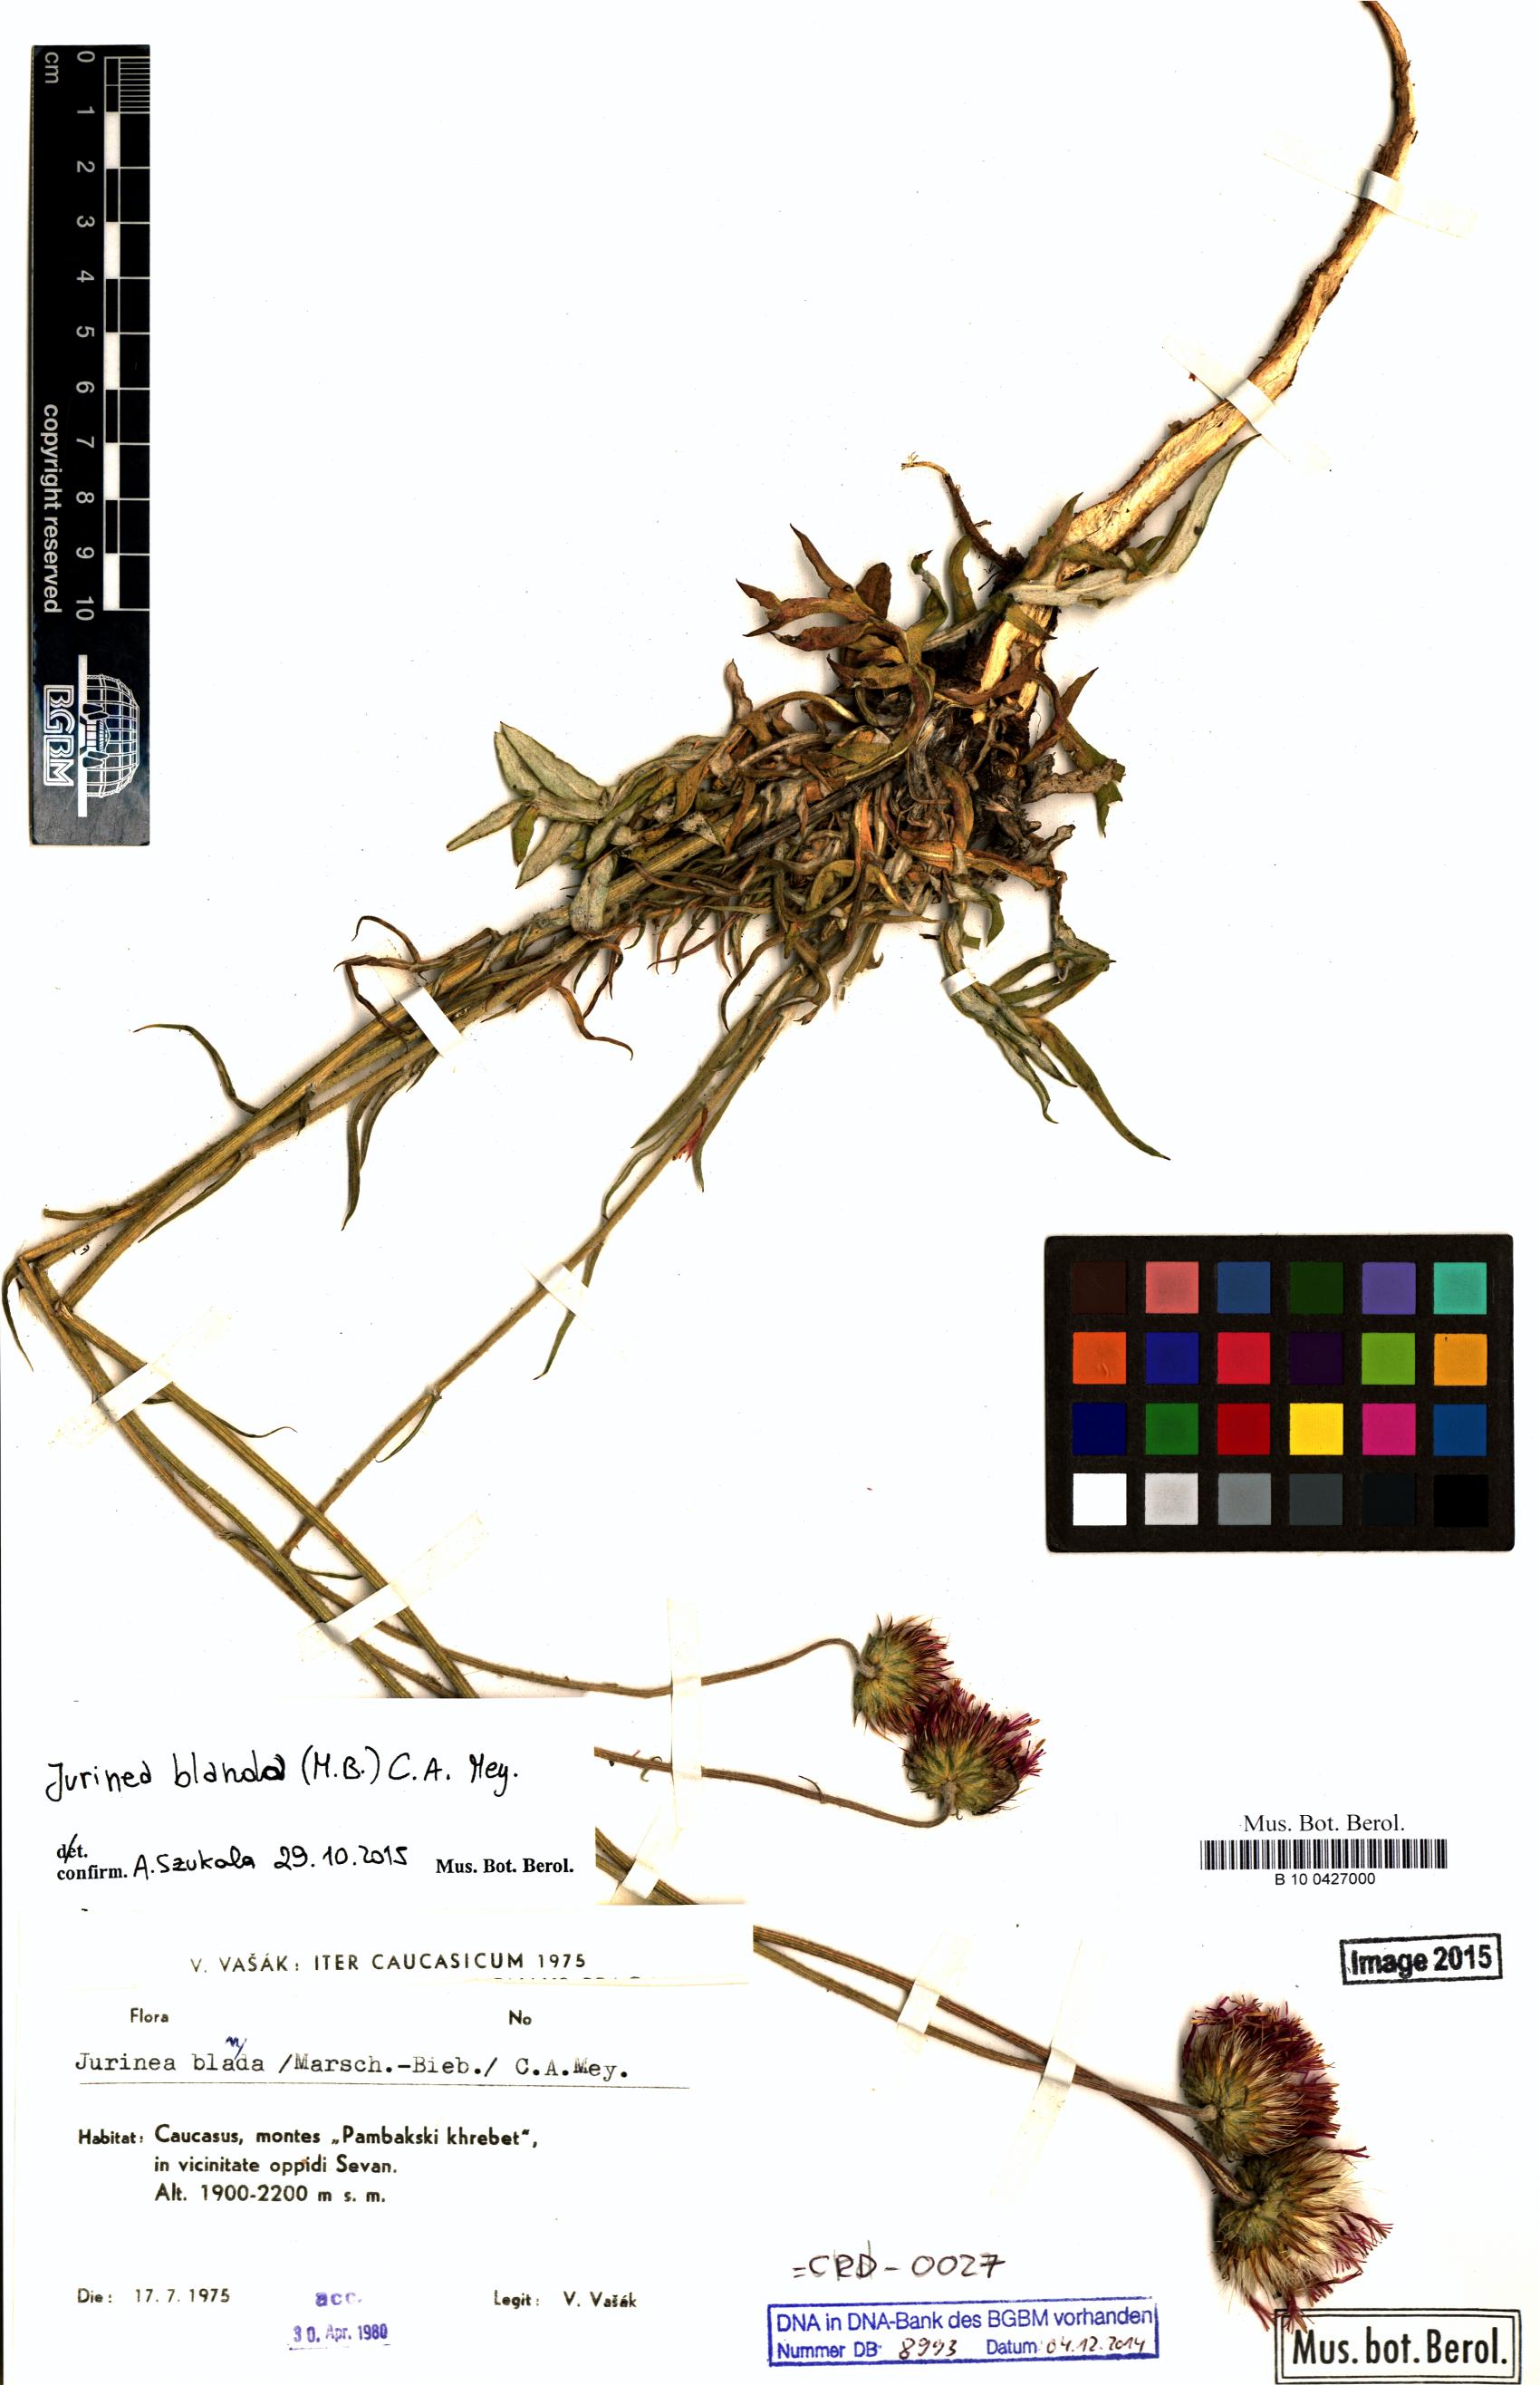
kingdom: Plantae
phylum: Tracheophyta
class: Magnoliopsida
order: Asterales
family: Asteraceae
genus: Jurinea
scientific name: Jurinea blanda
